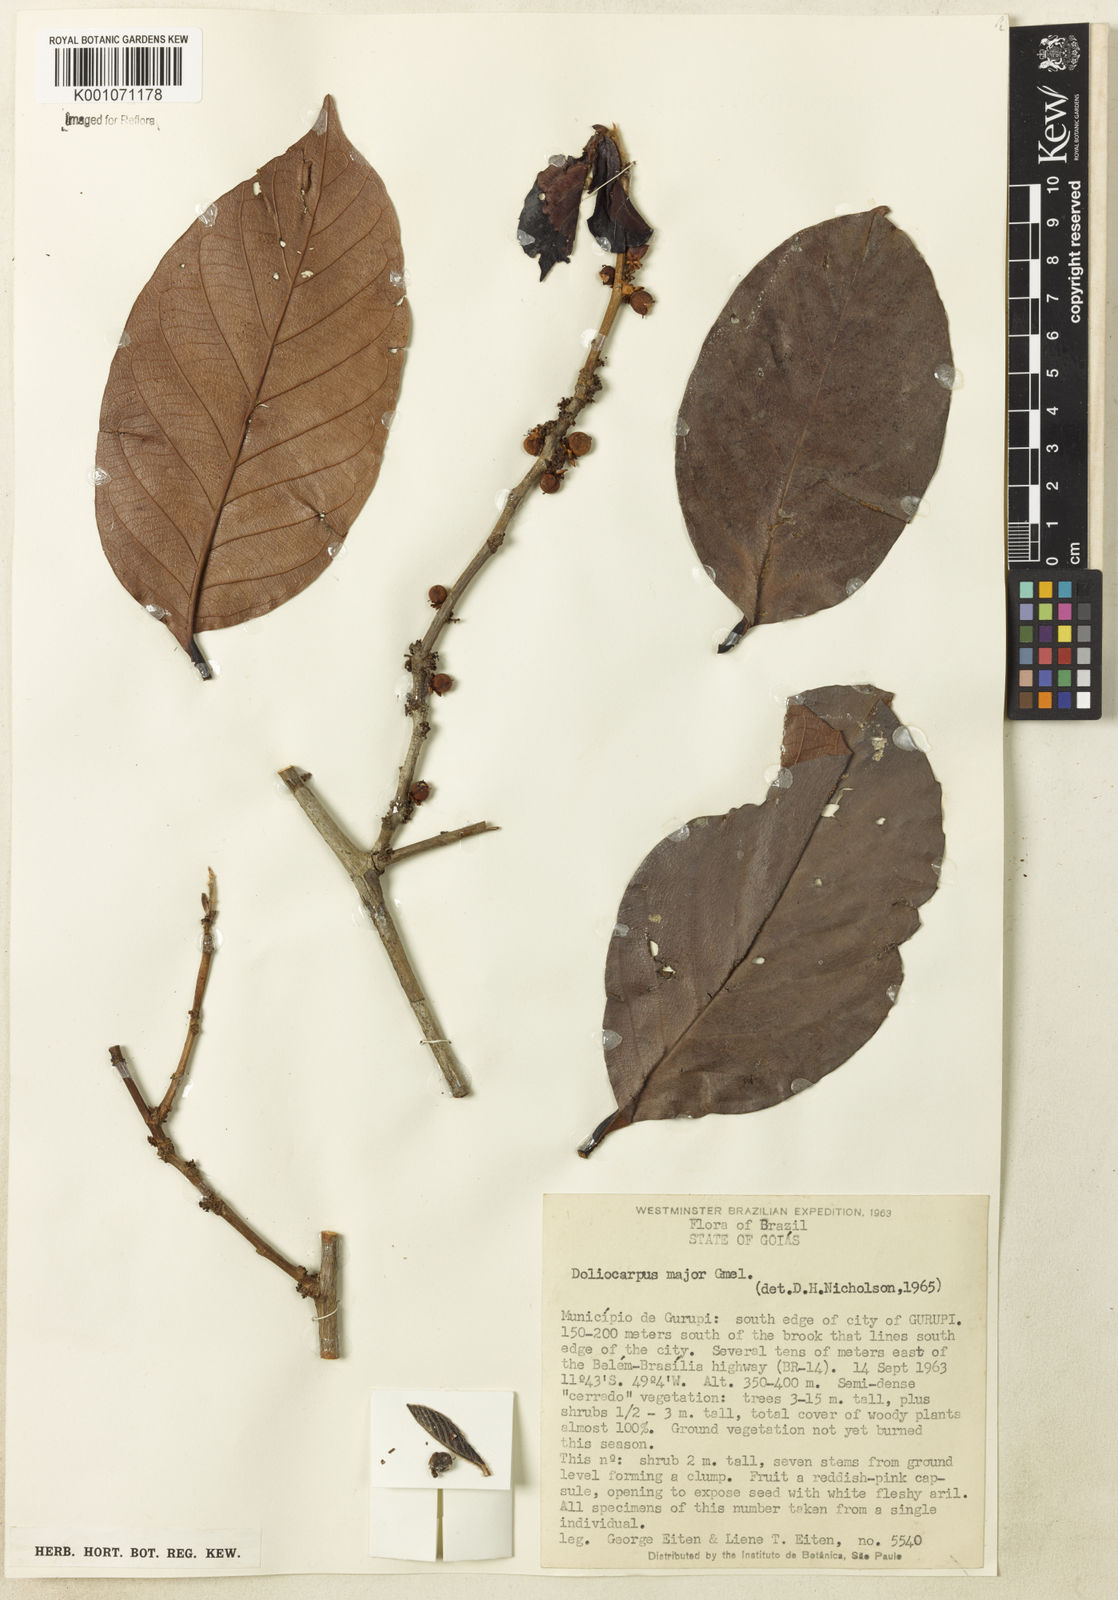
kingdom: Plantae
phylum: Tracheophyta
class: Magnoliopsida
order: Dilleniales
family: Dilleniaceae
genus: Doliocarpus
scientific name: Doliocarpus major
